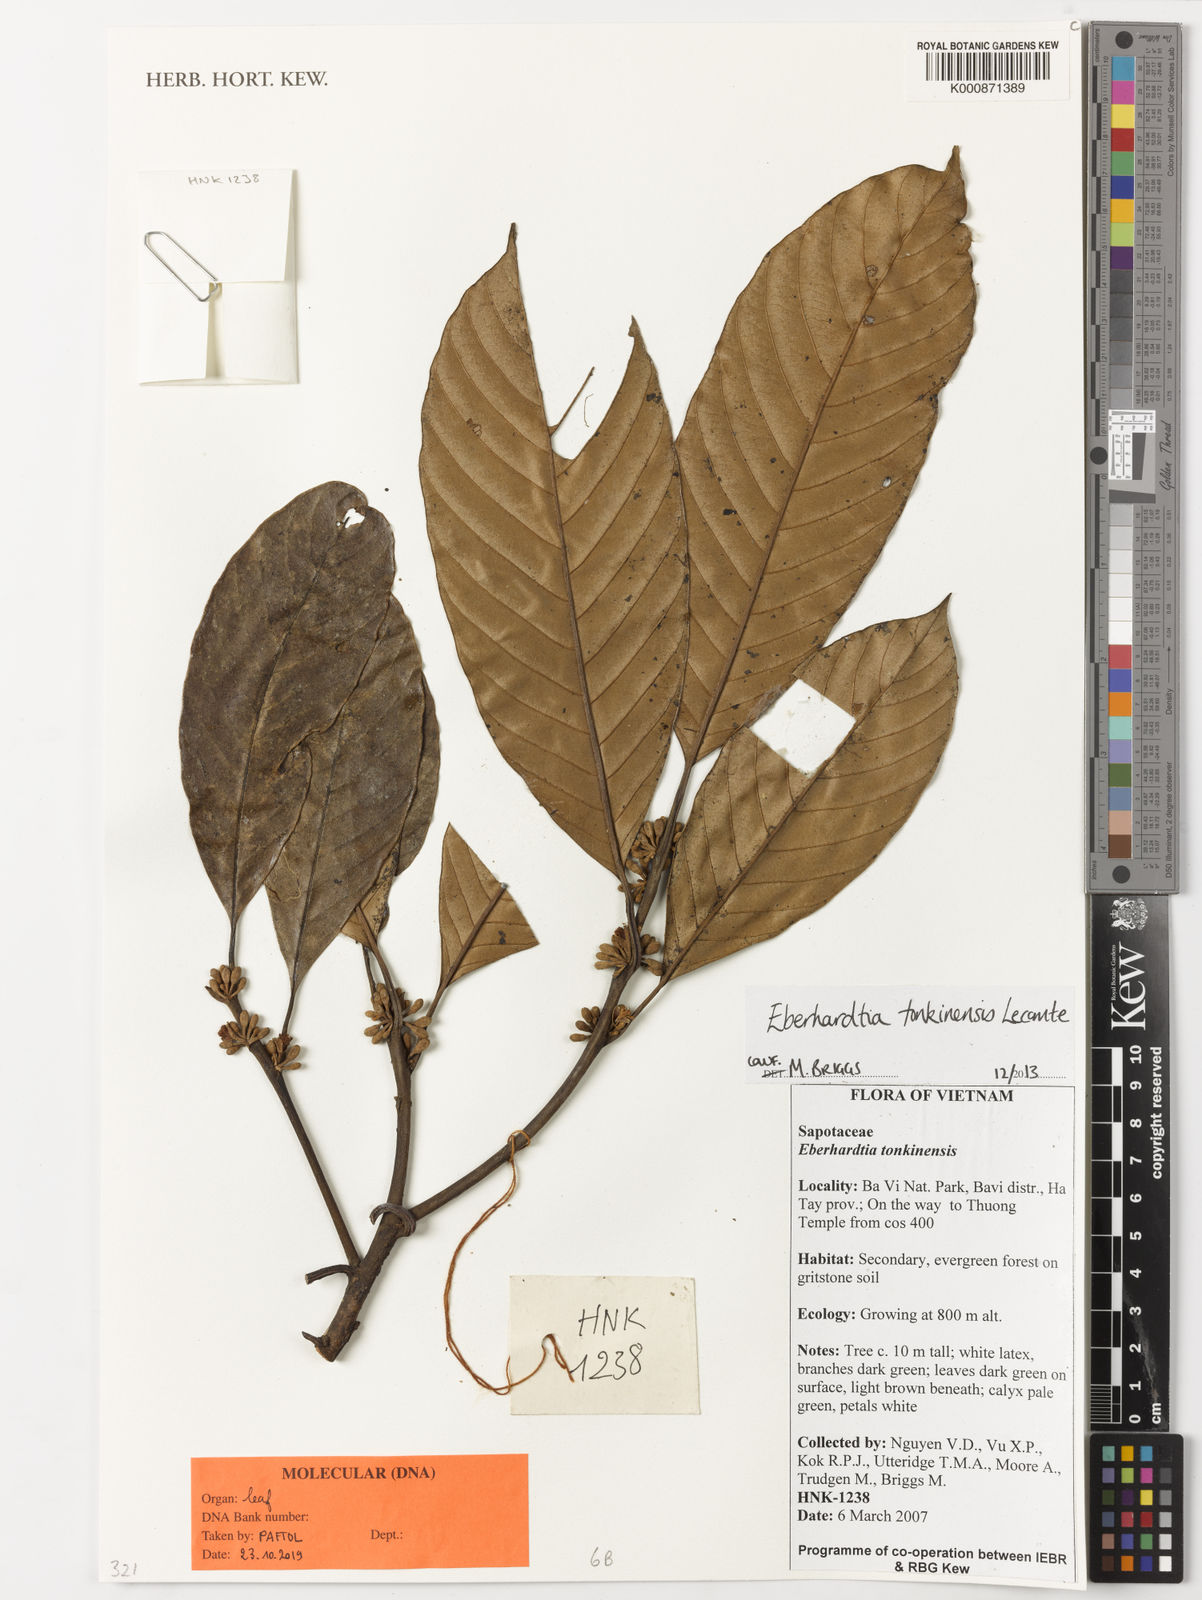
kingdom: Plantae
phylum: Tracheophyta
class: Magnoliopsida
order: Ericales
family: Sapotaceae
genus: Eberhardtia
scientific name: Eberhardtia tonkinensis
